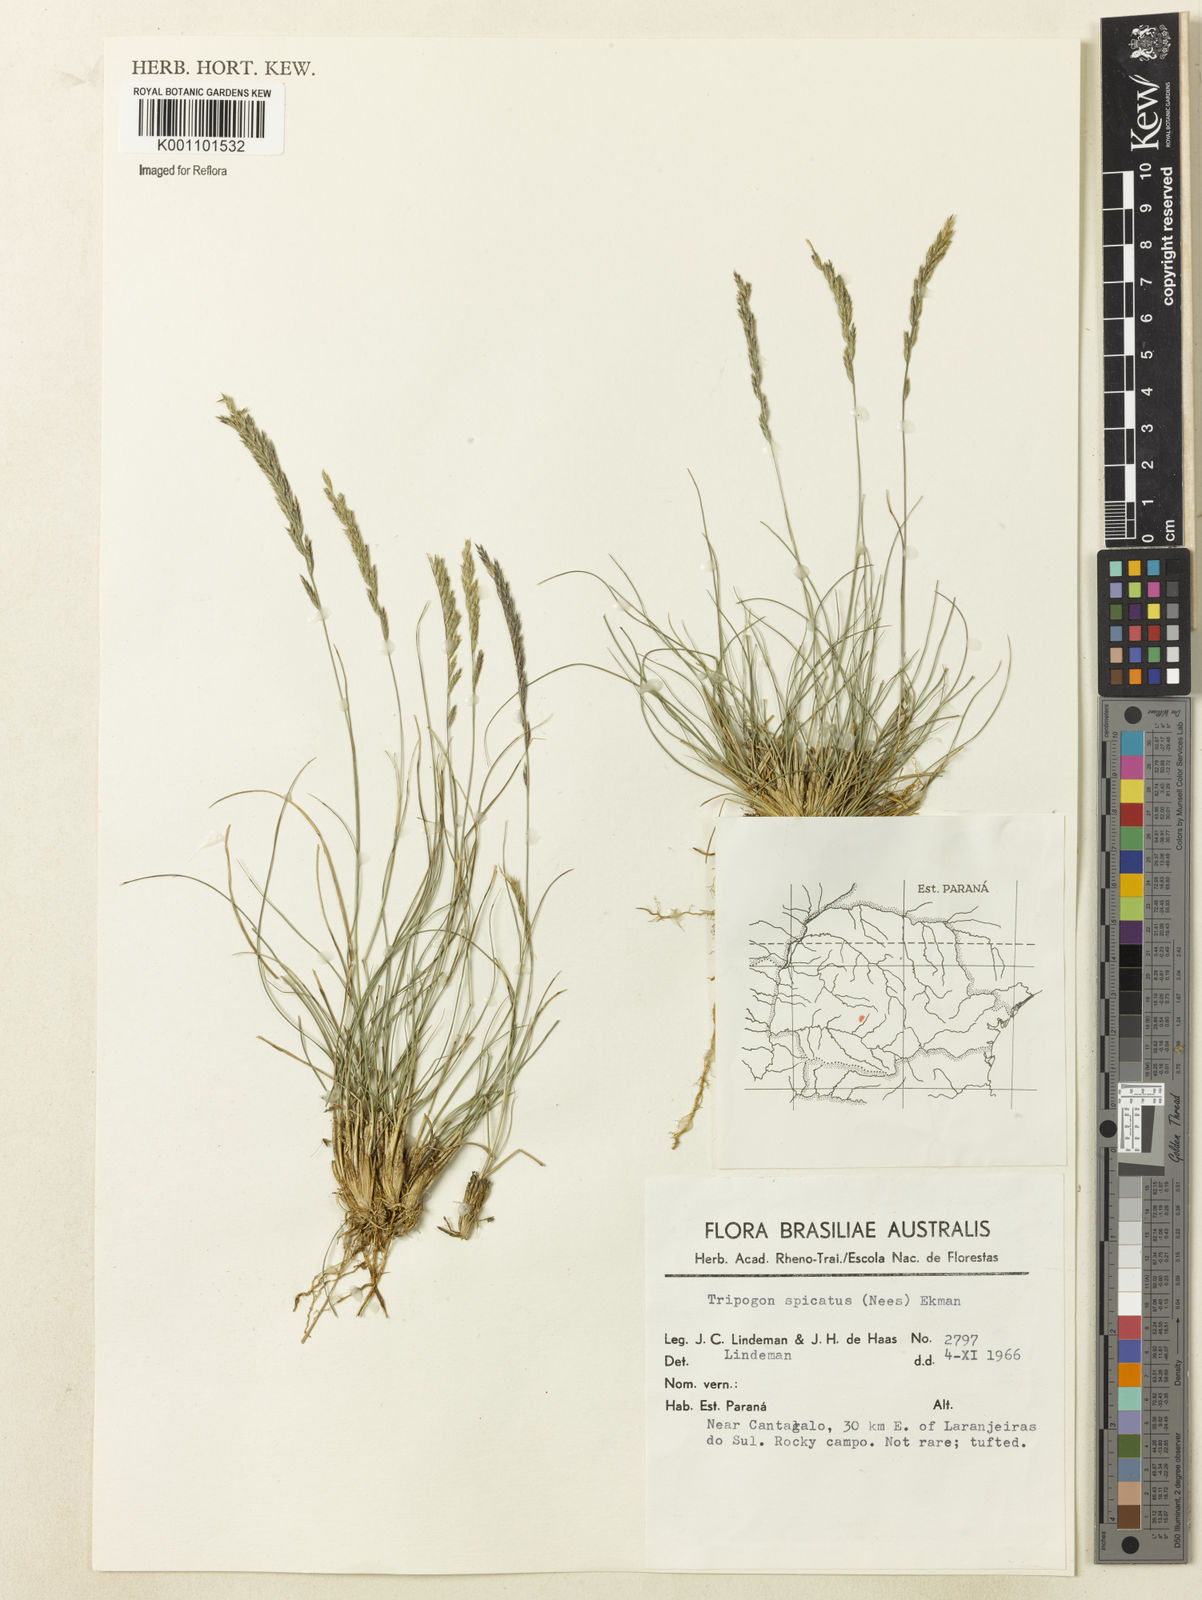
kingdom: Plantae
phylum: Tracheophyta
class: Liliopsida
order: Poales
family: Poaceae
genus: Tripogonella
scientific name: Tripogonella spicata
